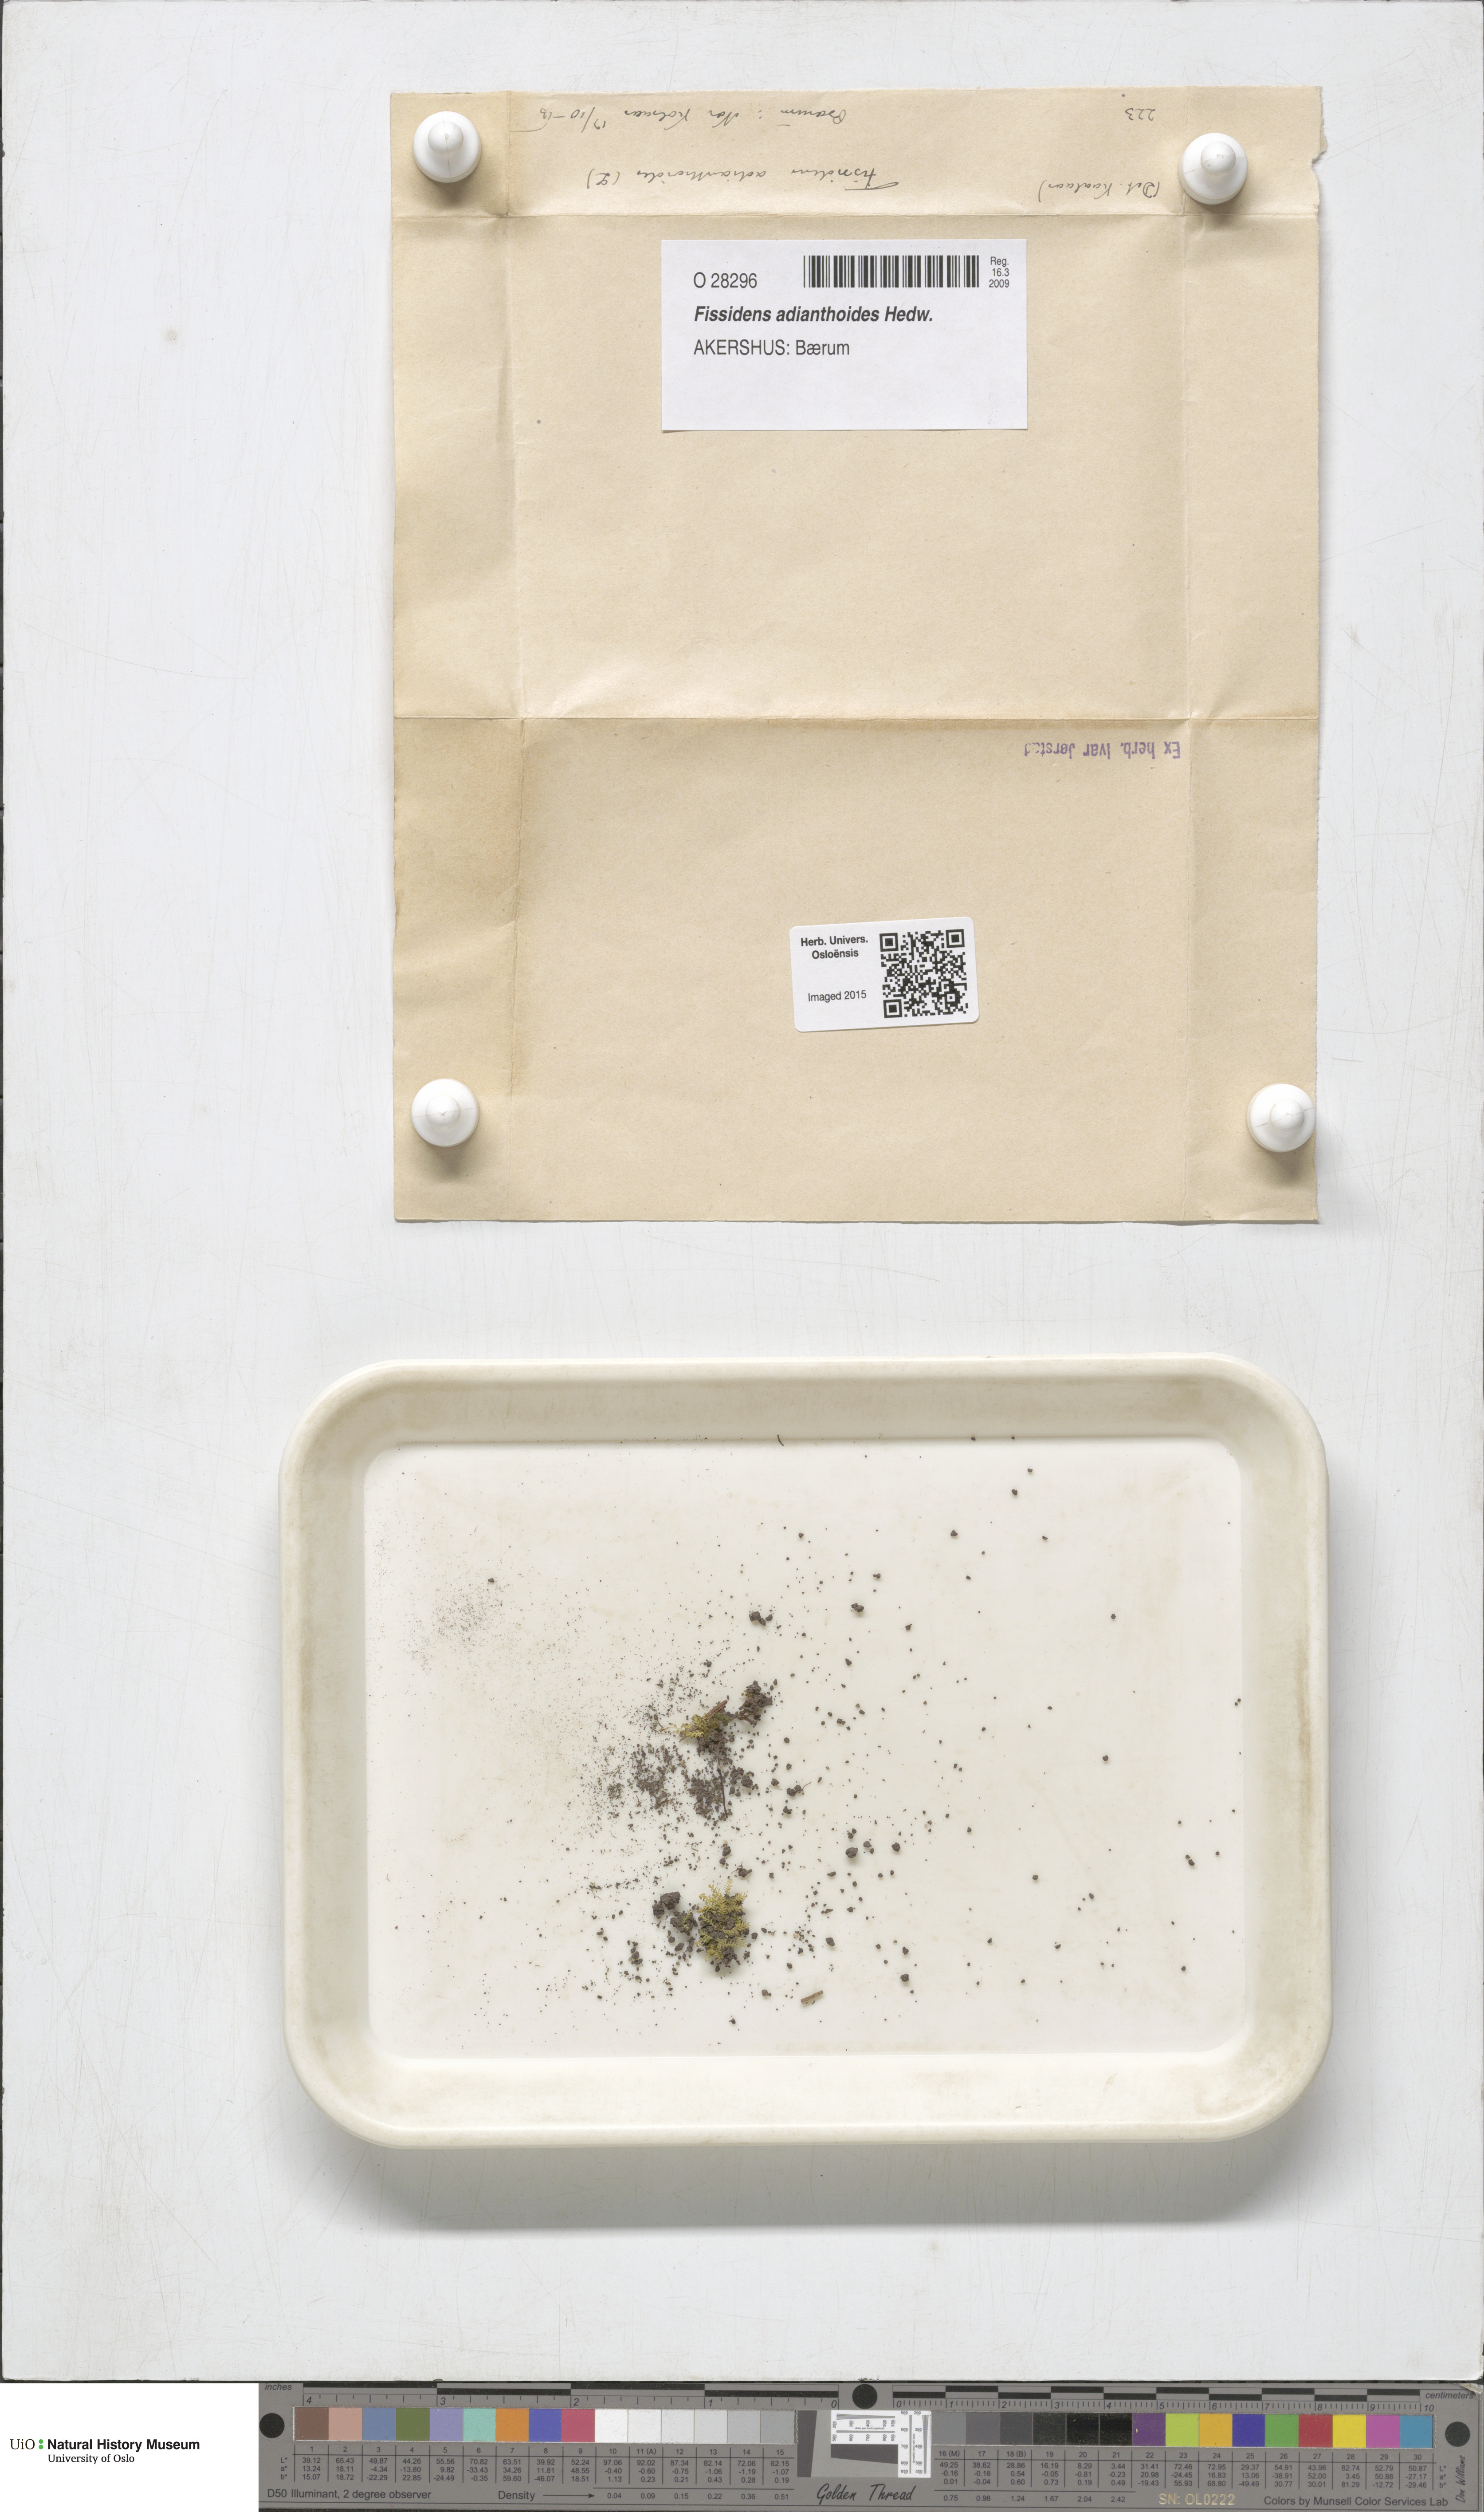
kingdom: Plantae
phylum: Bryophyta
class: Bryopsida
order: Dicranales
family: Fissidentaceae
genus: Fissidens
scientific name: Fissidens adianthoides
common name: Maidenhair pocket moss
